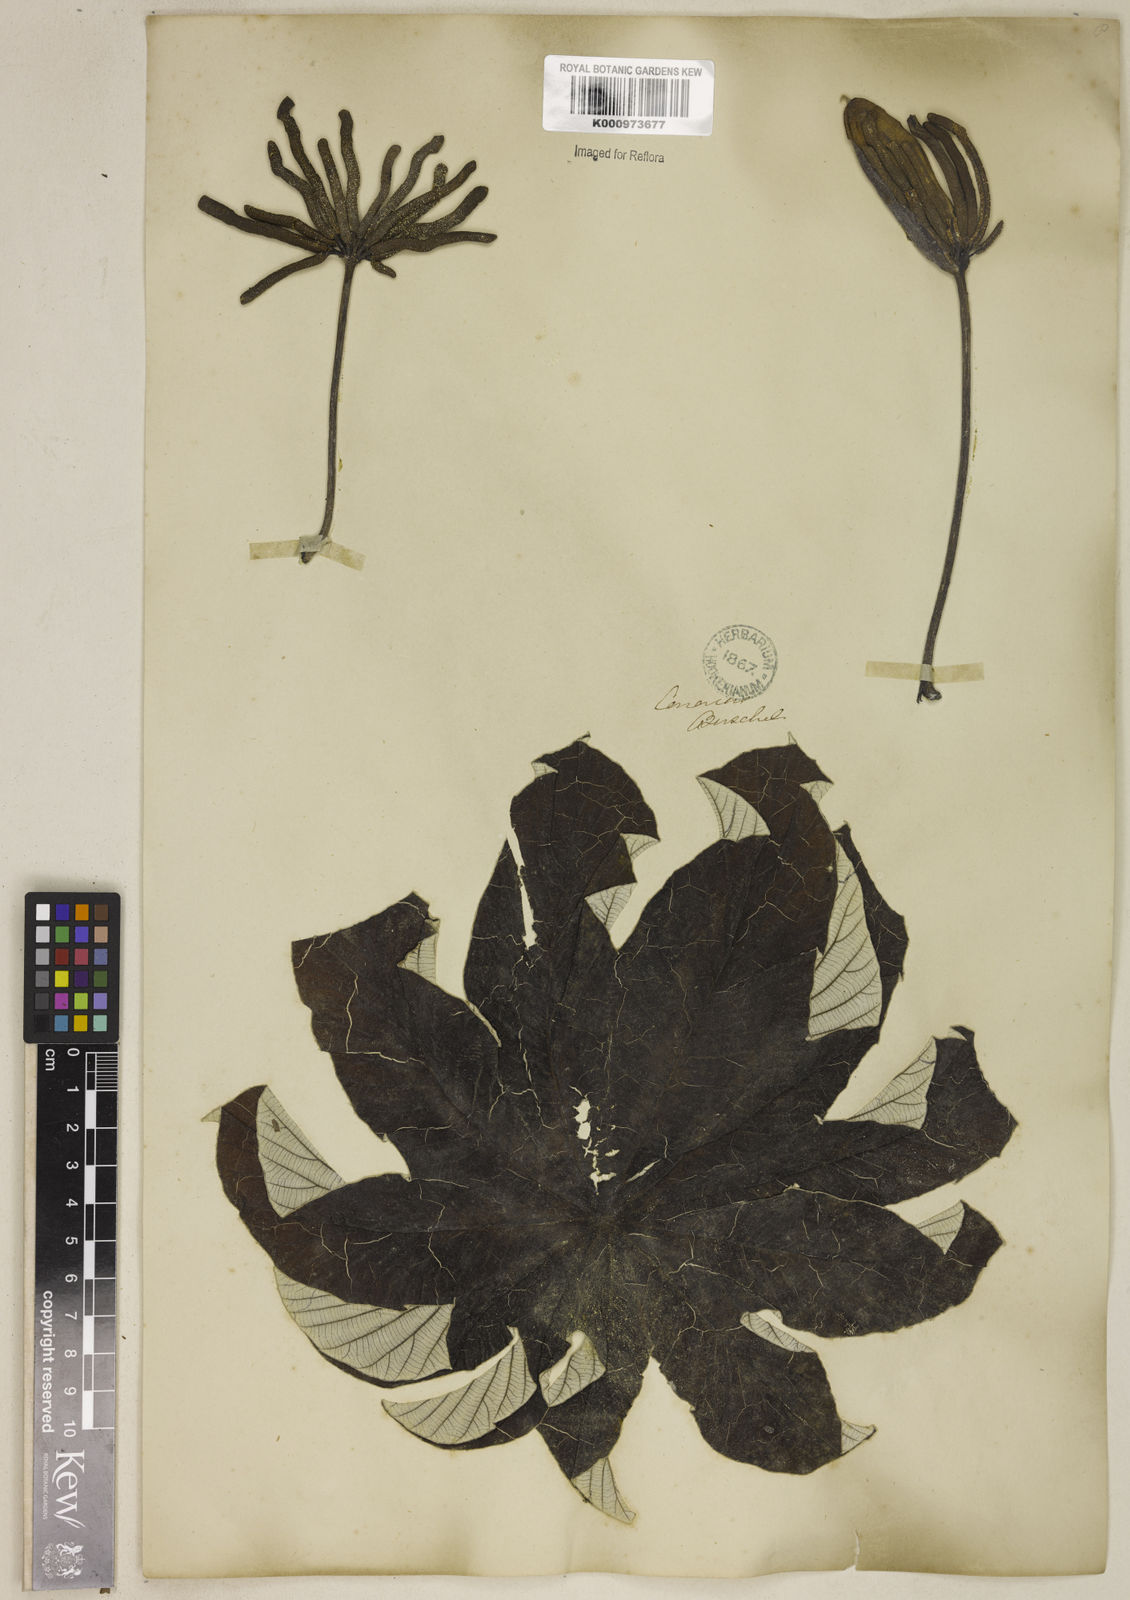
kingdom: Plantae
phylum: Tracheophyta
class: Magnoliopsida
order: Rosales
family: Urticaceae
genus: Cecropia
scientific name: Cecropia peltata
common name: Trumpet-tree
